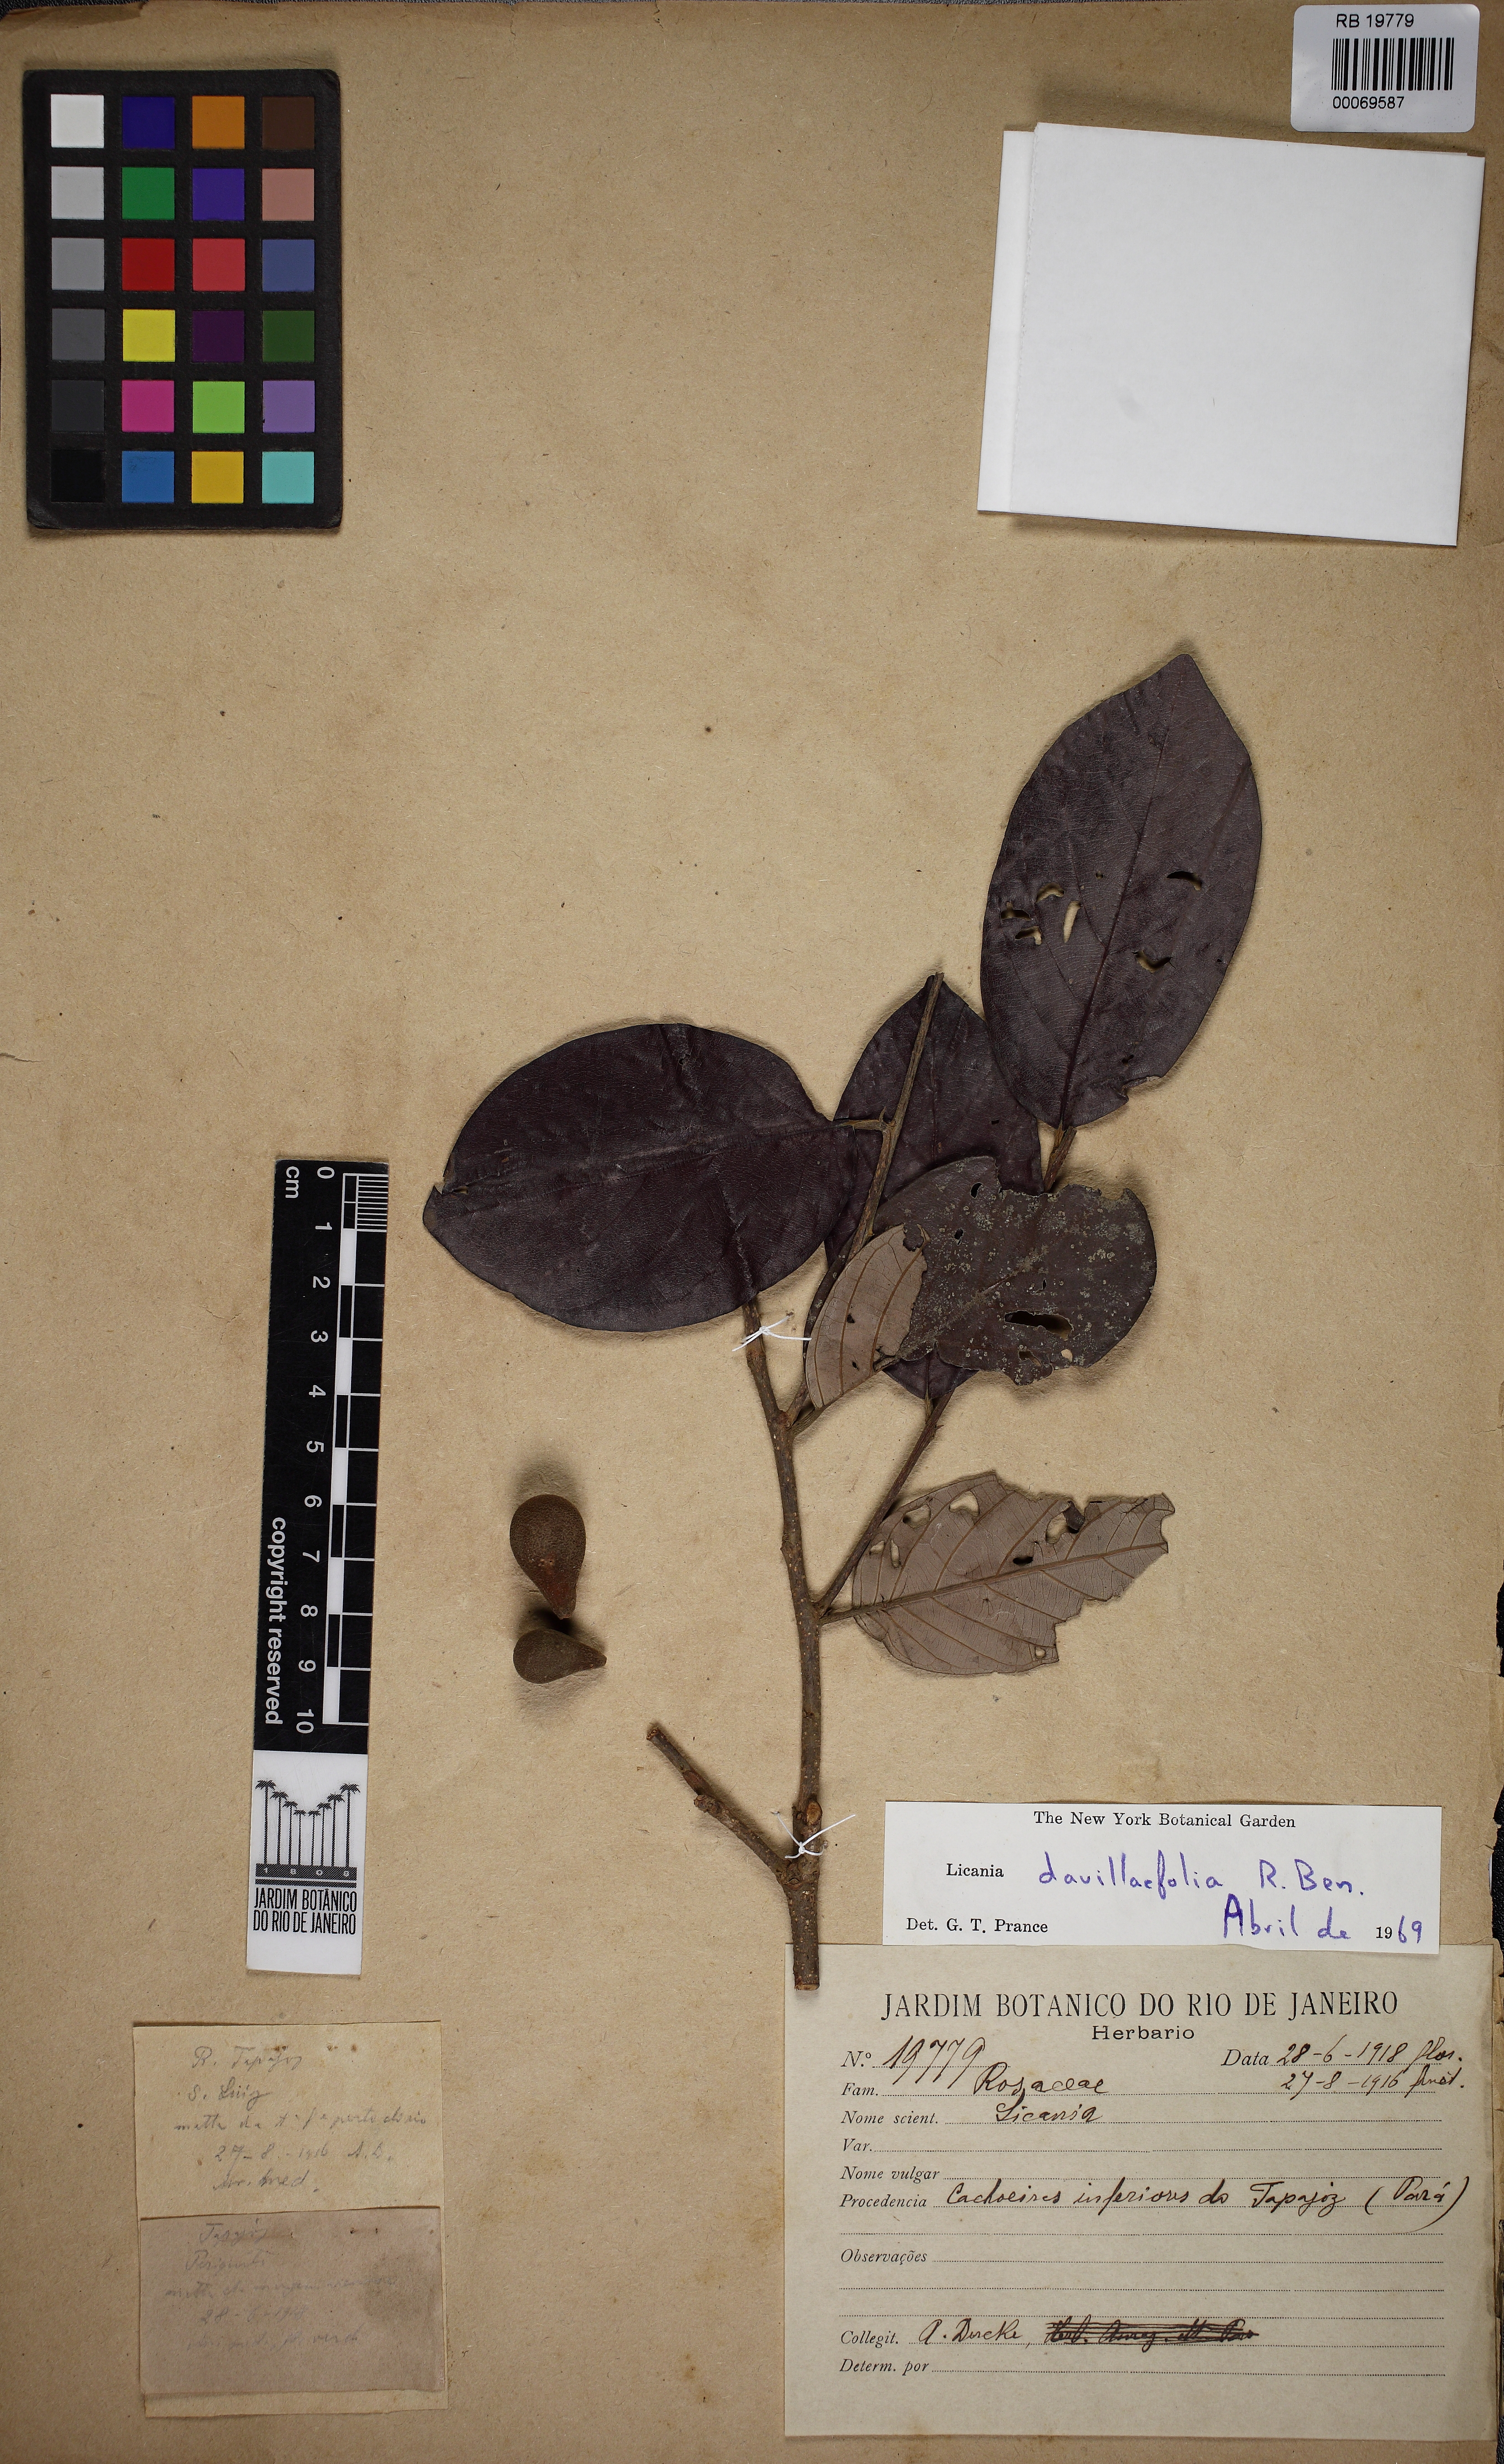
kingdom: Plantae
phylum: Tracheophyta
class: Magnoliopsida
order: Malpighiales
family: Chrysobalanaceae
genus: Licania
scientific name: Licania davillifolia
